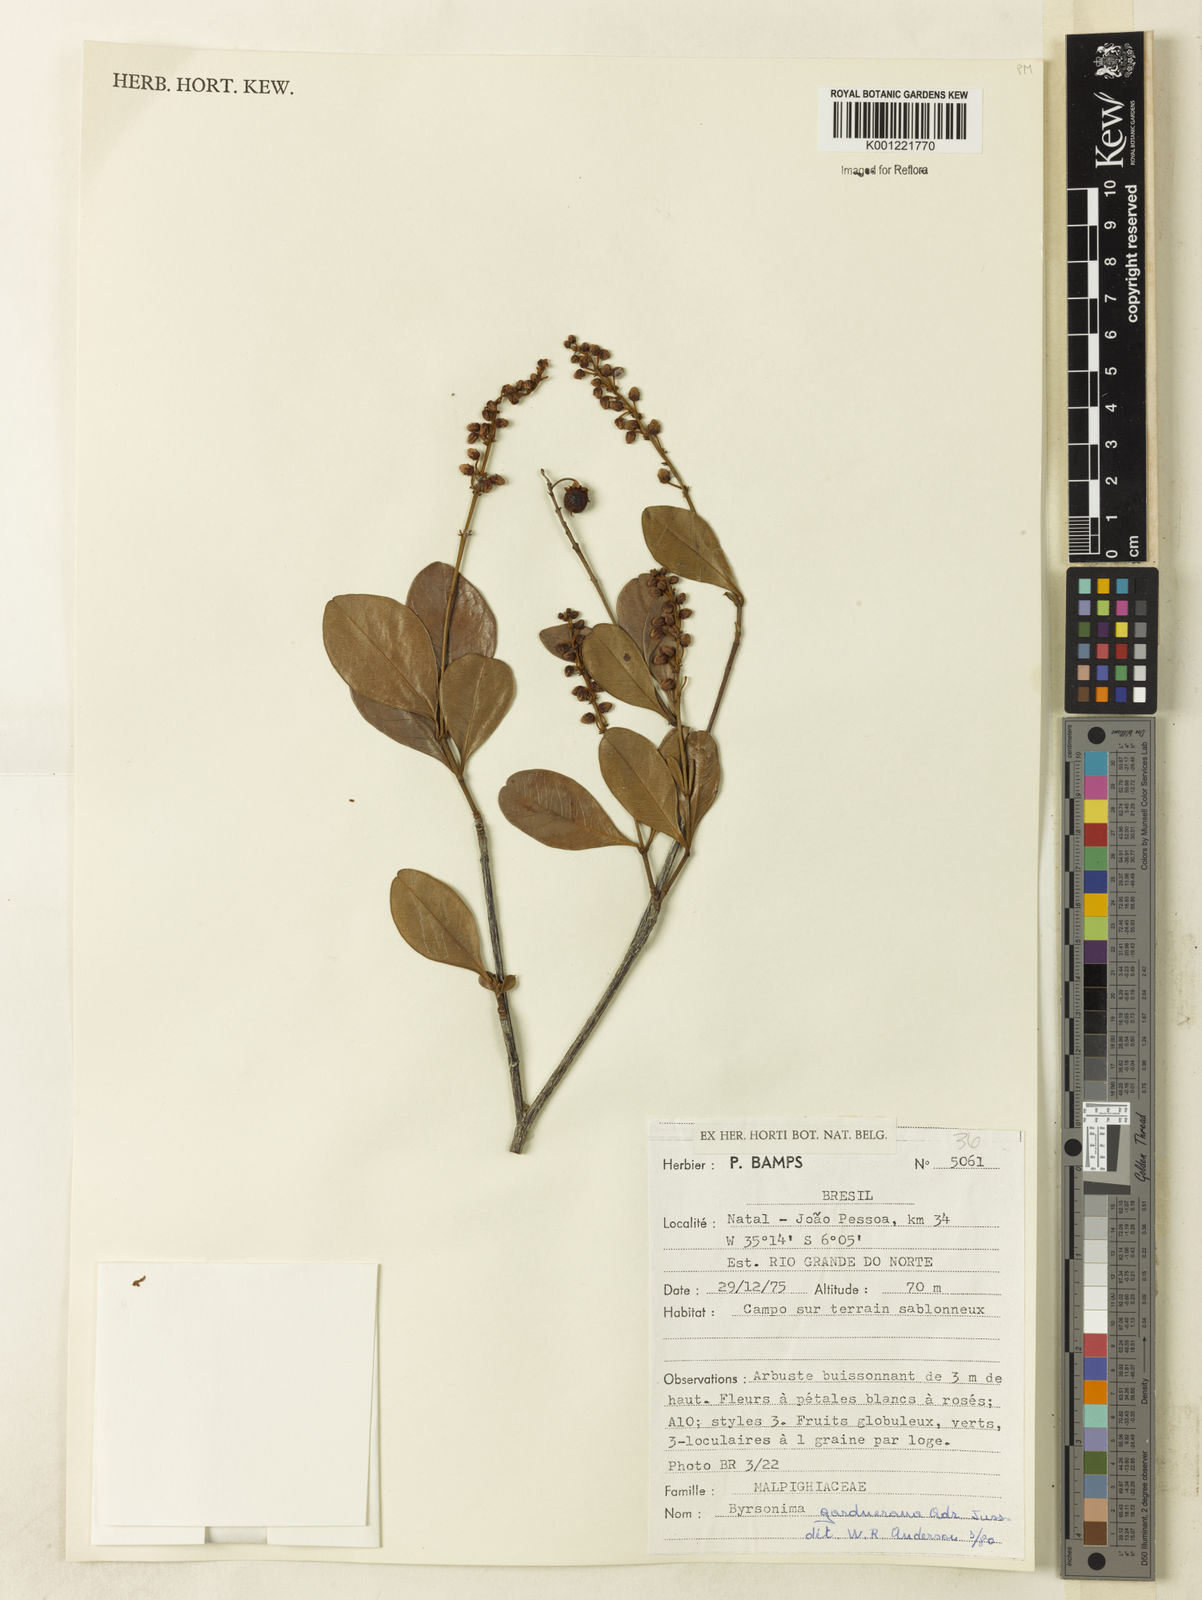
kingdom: Plantae
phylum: Tracheophyta
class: Magnoliopsida
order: Malpighiales
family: Malpighiaceae
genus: Byrsonima
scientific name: Byrsonima gardneriana
